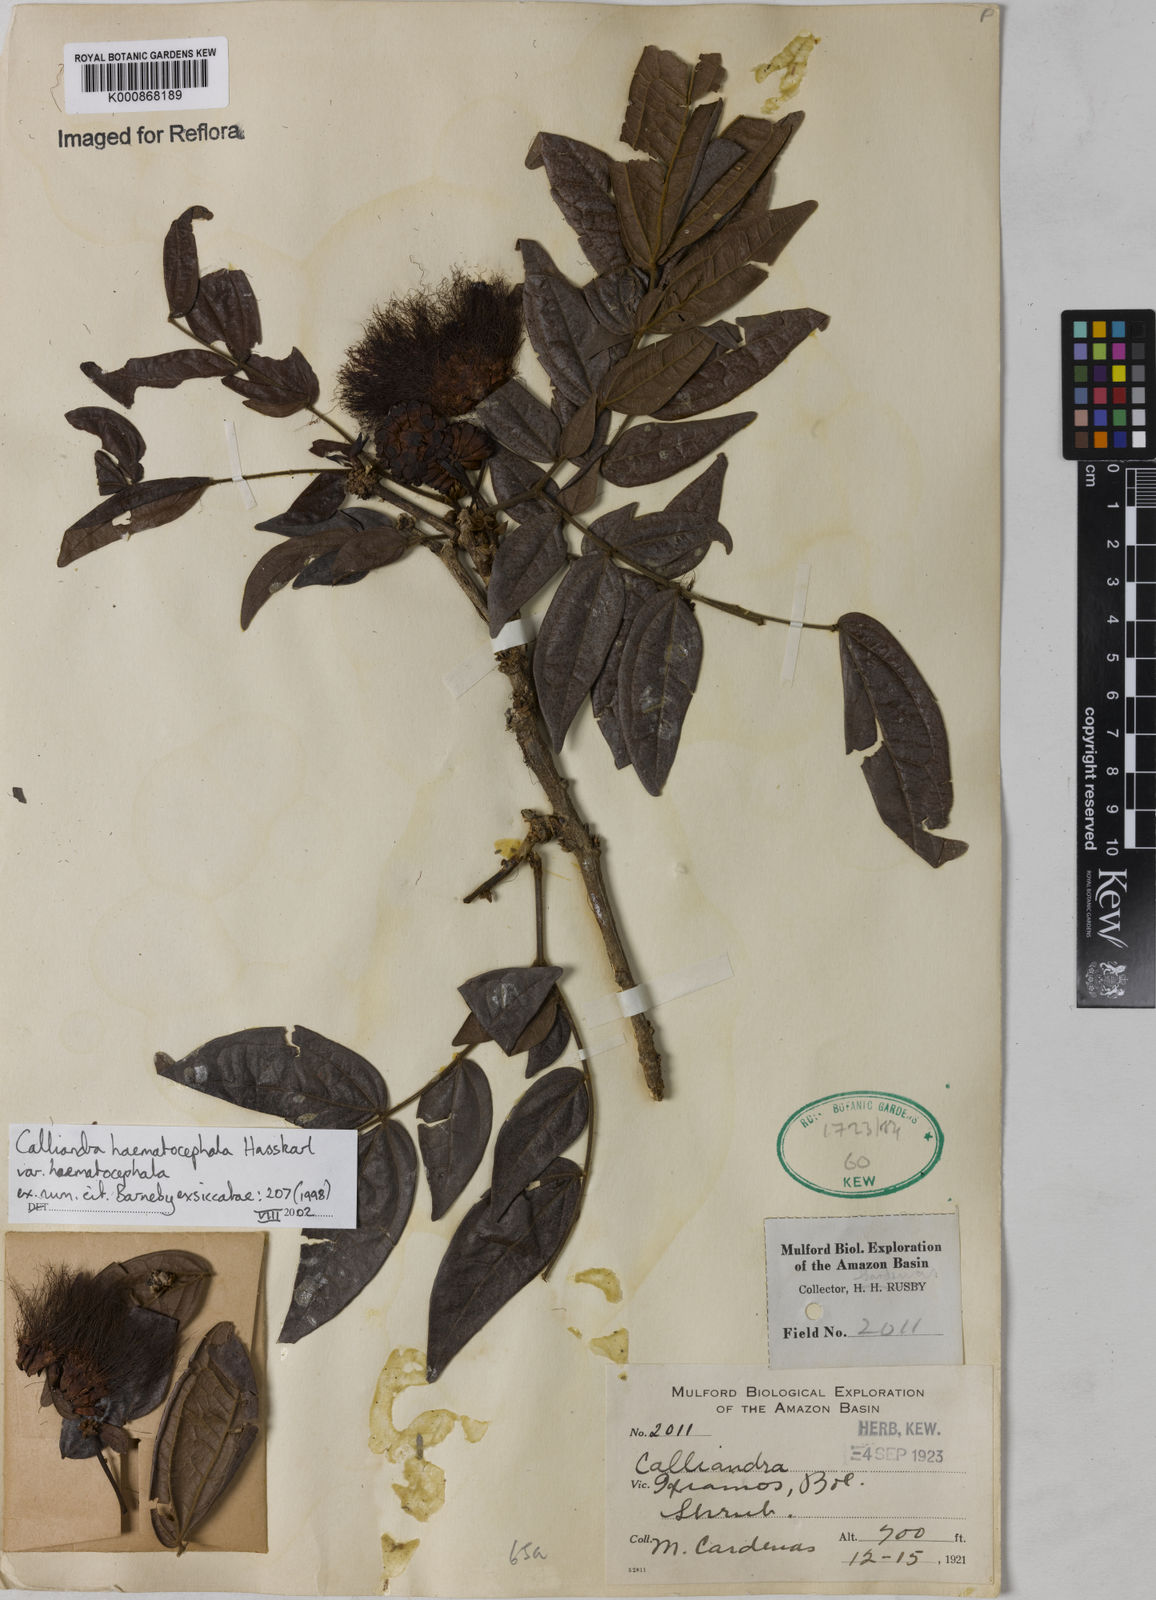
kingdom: Plantae
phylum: Tracheophyta
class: Magnoliopsida
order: Fabales
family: Fabaceae
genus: Calliandra
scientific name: Calliandra haematocephala
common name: Blood red tassel flower
